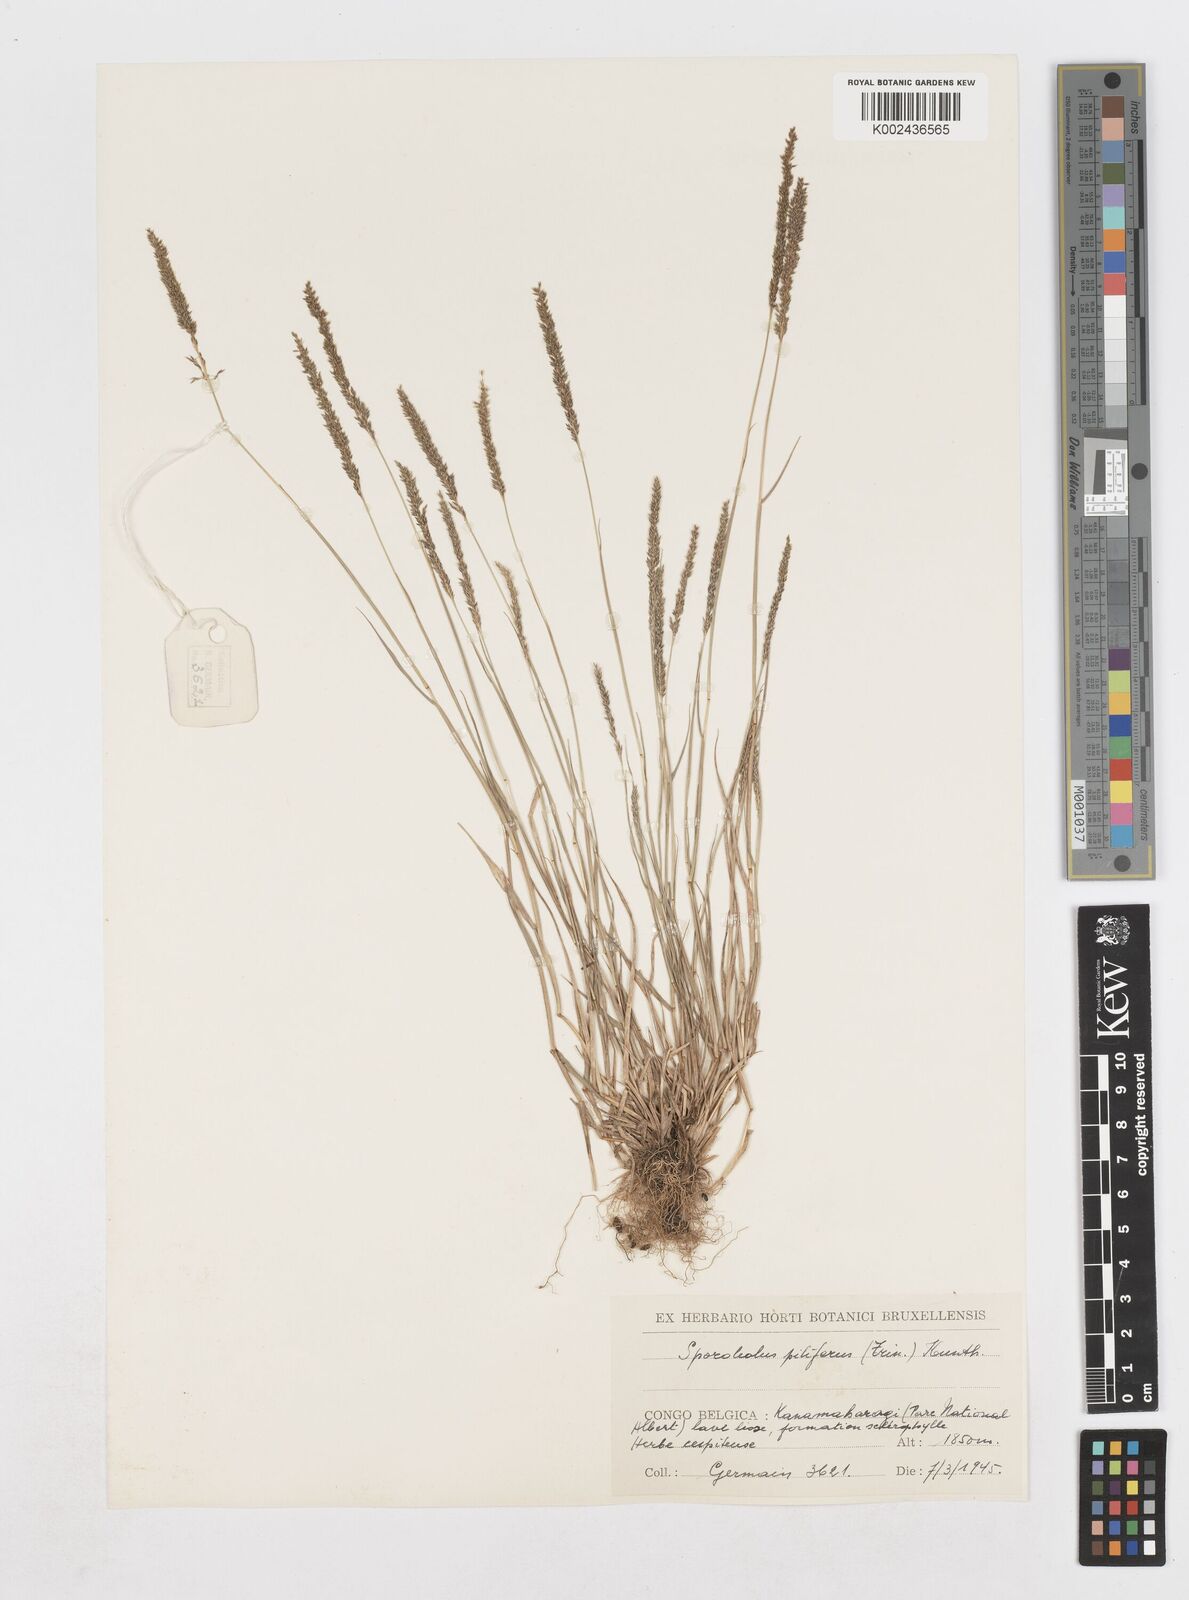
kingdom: Plantae
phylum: Tracheophyta
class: Liliopsida
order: Poales
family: Poaceae
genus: Sporobolus
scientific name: Sporobolus pilifer
